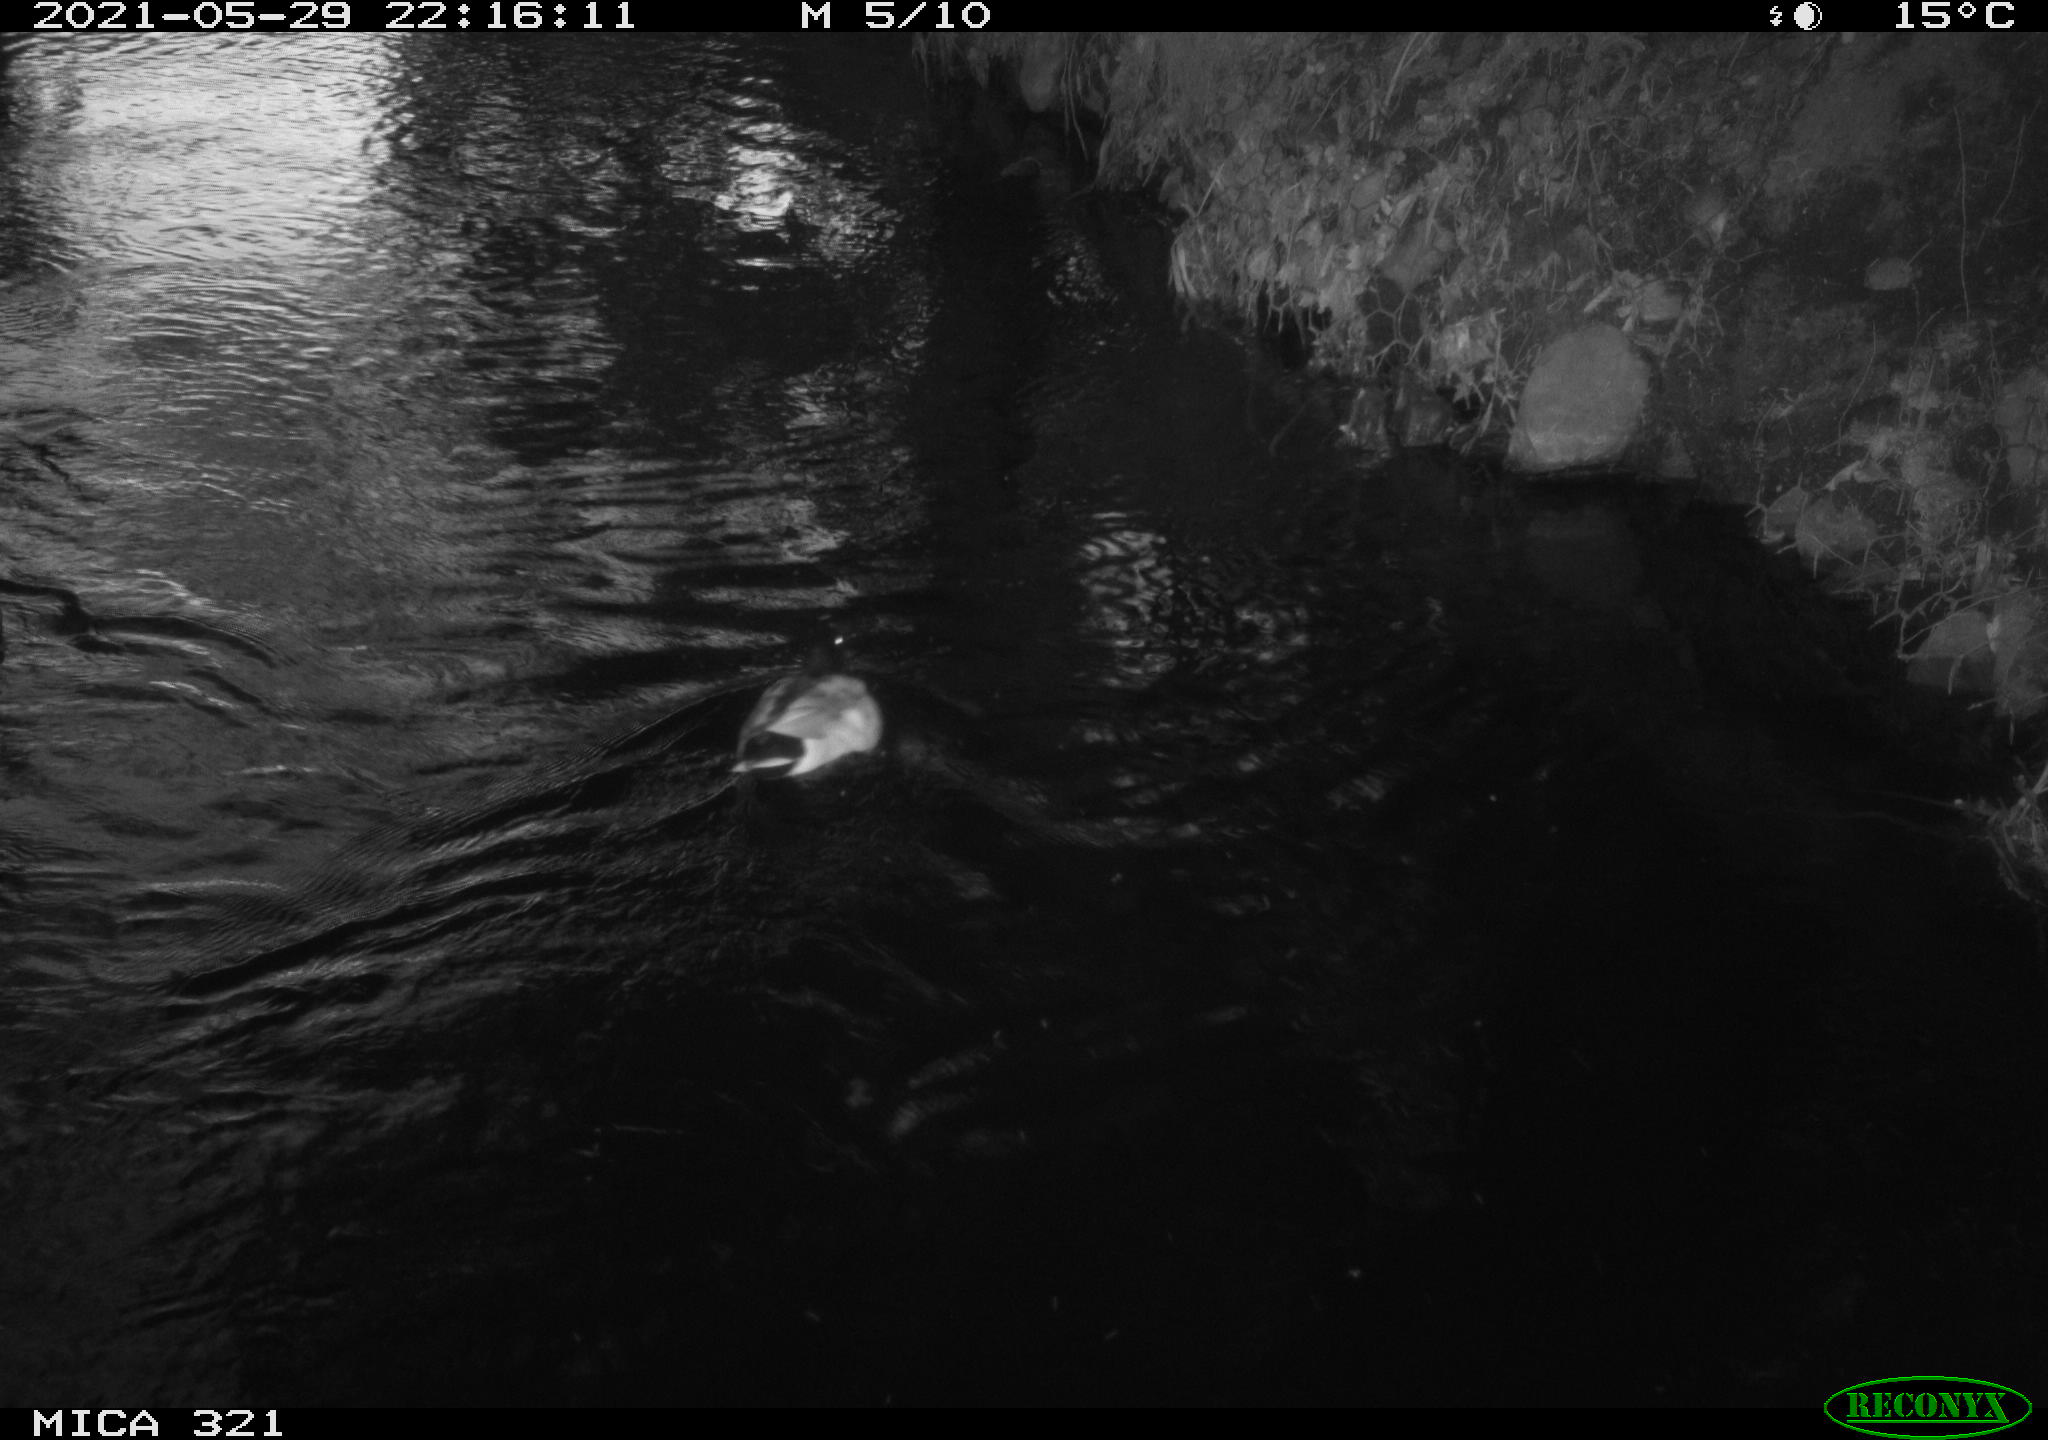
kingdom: Animalia
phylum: Chordata
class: Aves
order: Anseriformes
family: Anatidae
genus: Anas
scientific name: Anas platyrhynchos
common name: Mallard
